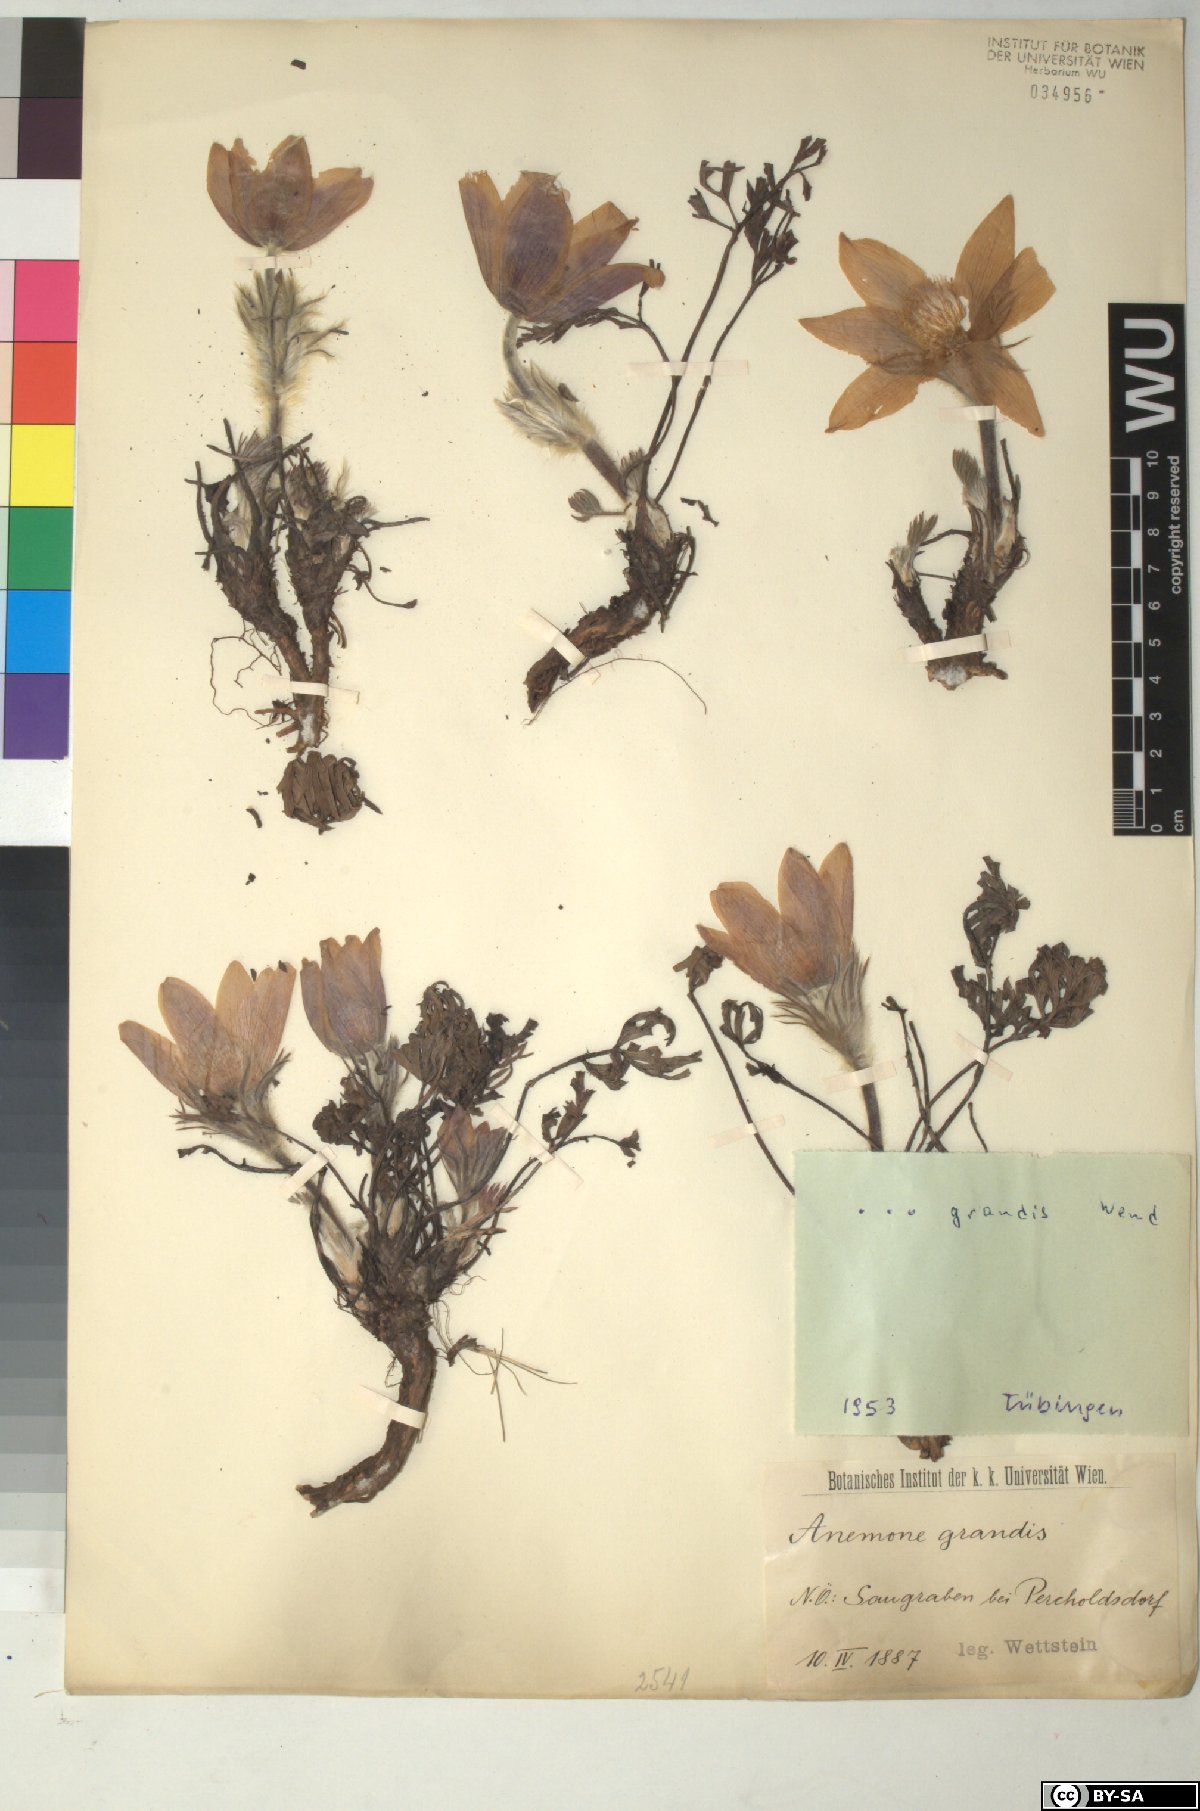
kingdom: Plantae
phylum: Tracheophyta
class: Magnoliopsida
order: Ranunculales
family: Ranunculaceae
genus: Pulsatilla
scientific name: Pulsatilla grandis
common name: Greater pasque flower
